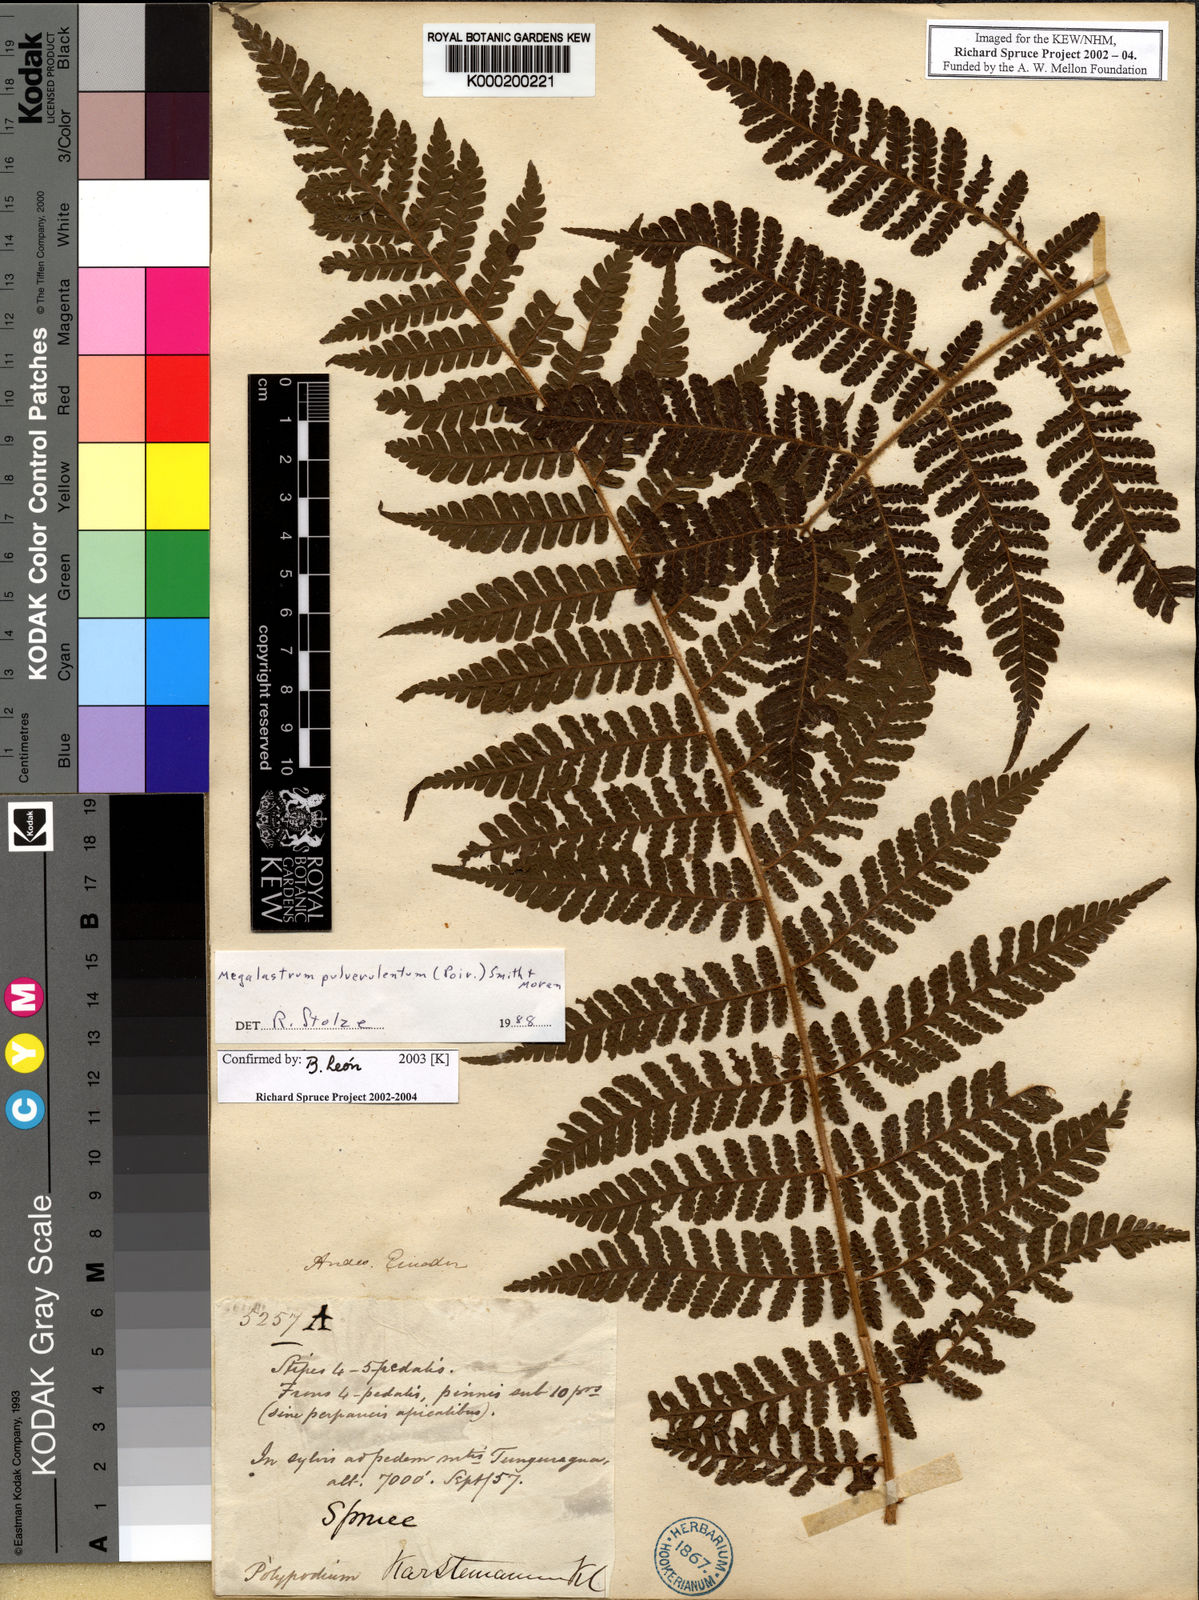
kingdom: Plantae
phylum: Tracheophyta
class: Polypodiopsida
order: Polypodiales
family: Dryopteridaceae
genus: Megalastrum
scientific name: Megalastrum
